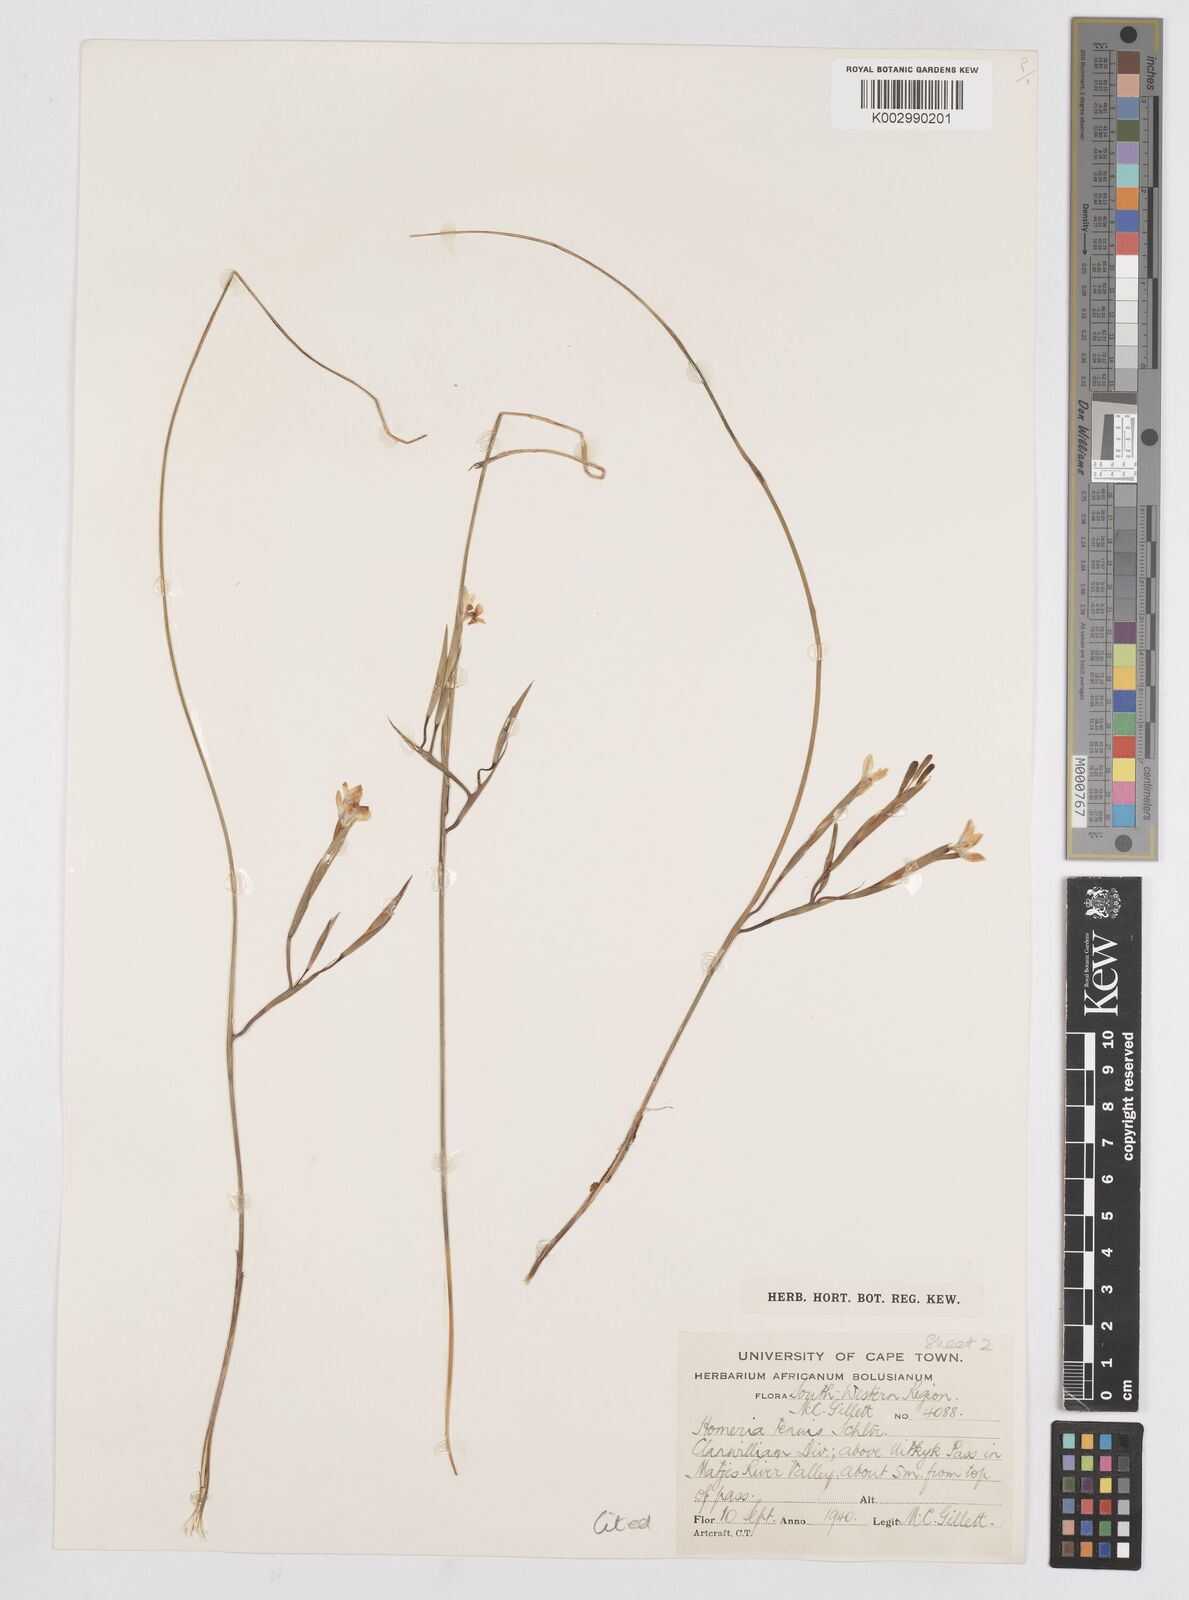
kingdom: Plantae
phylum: Tracheophyta
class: Liliopsida
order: Asparagales
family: Iridaceae
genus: Moraea
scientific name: Moraea unguiculata
